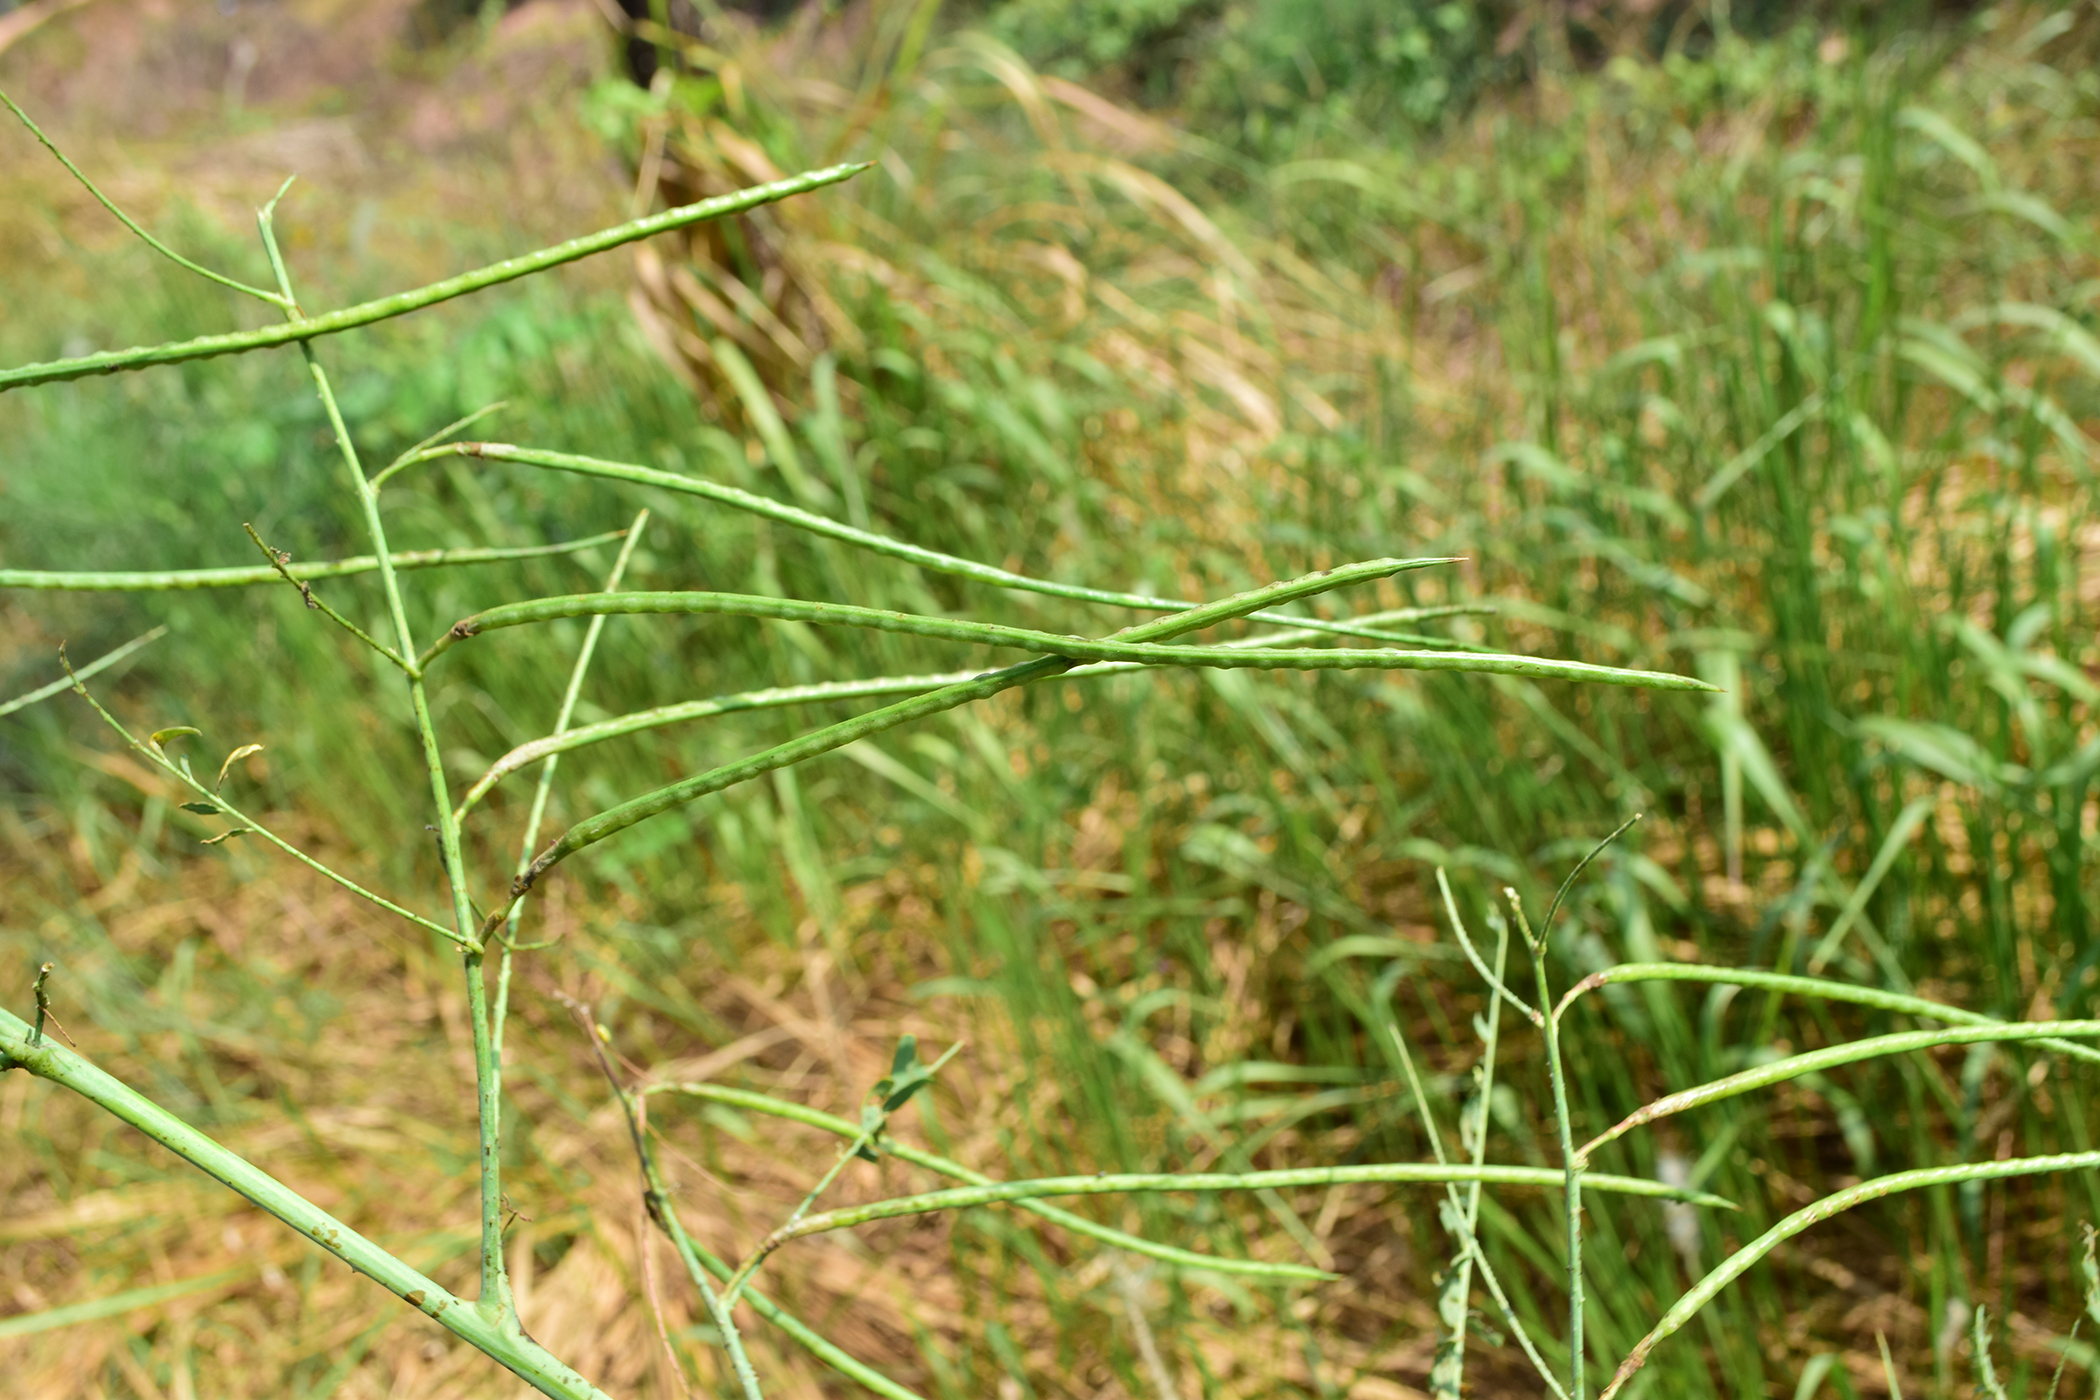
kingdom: Plantae
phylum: Tracheophyta
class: Magnoliopsida
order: Fabales
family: Fabaceae
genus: Sesbania
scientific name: Sesbania bispinosa
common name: Sesbania pea
